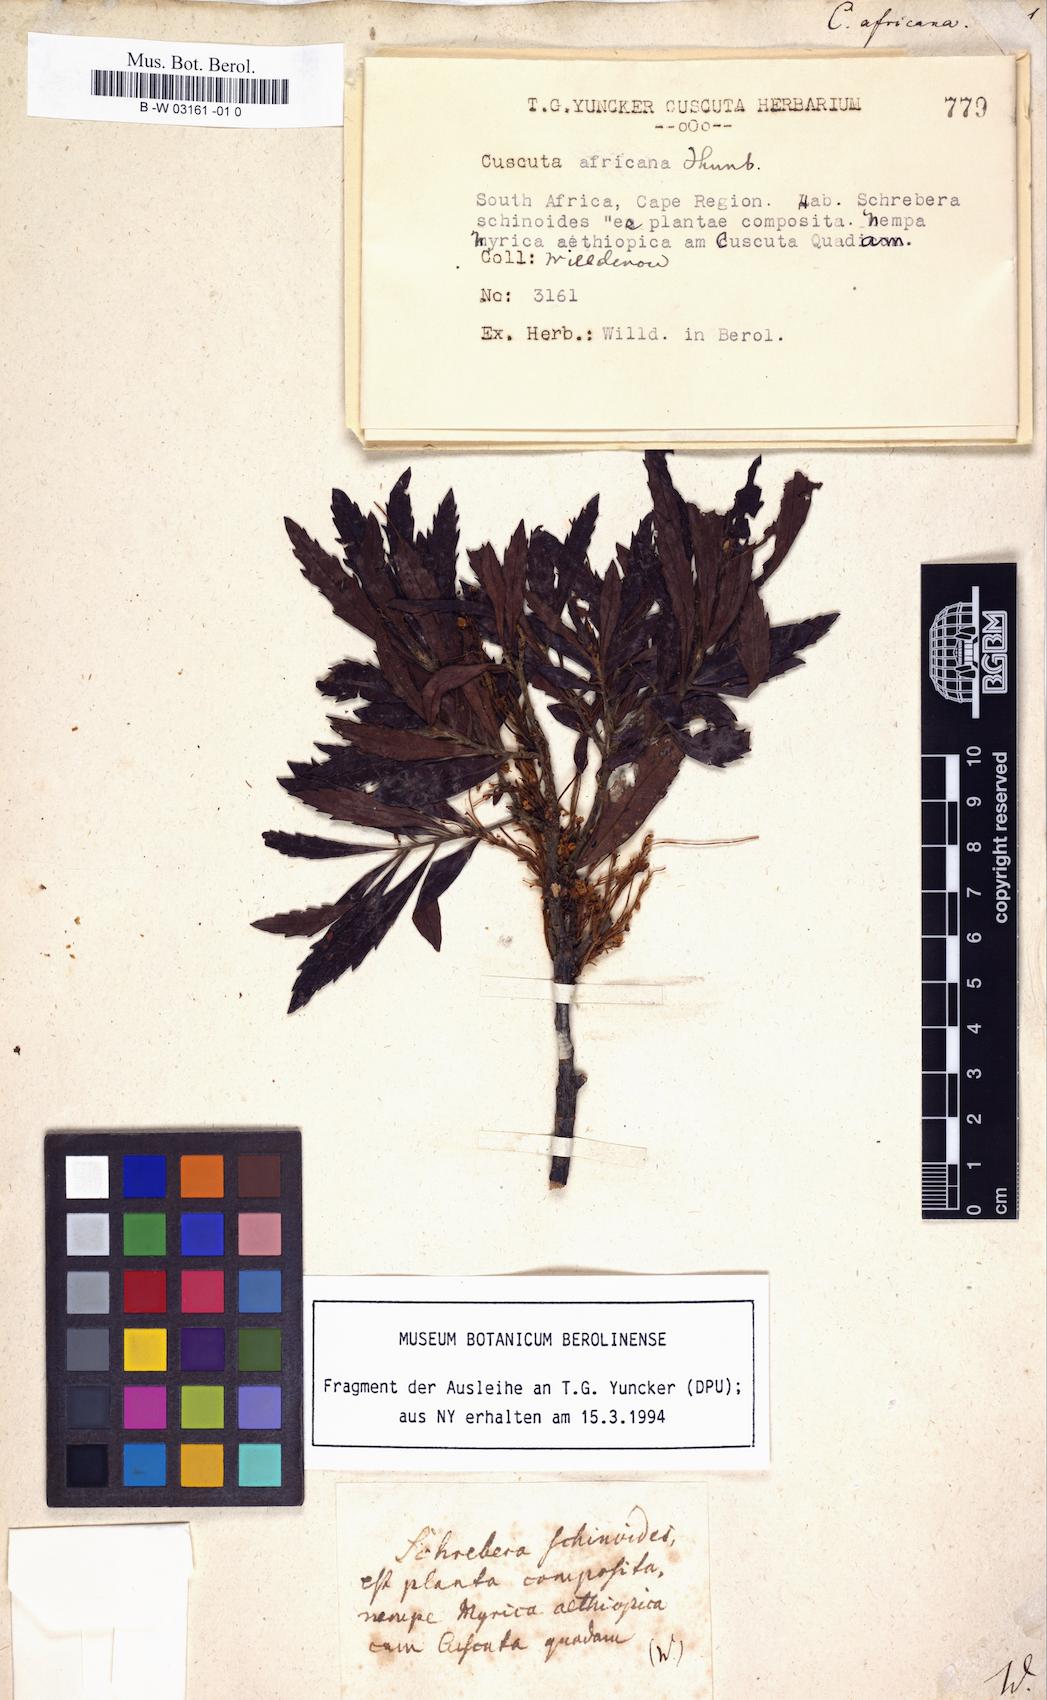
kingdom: Plantae
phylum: Tracheophyta
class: Magnoliopsida
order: Solanales
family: Convolvulaceae
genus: Cuscuta
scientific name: Cuscuta africana
